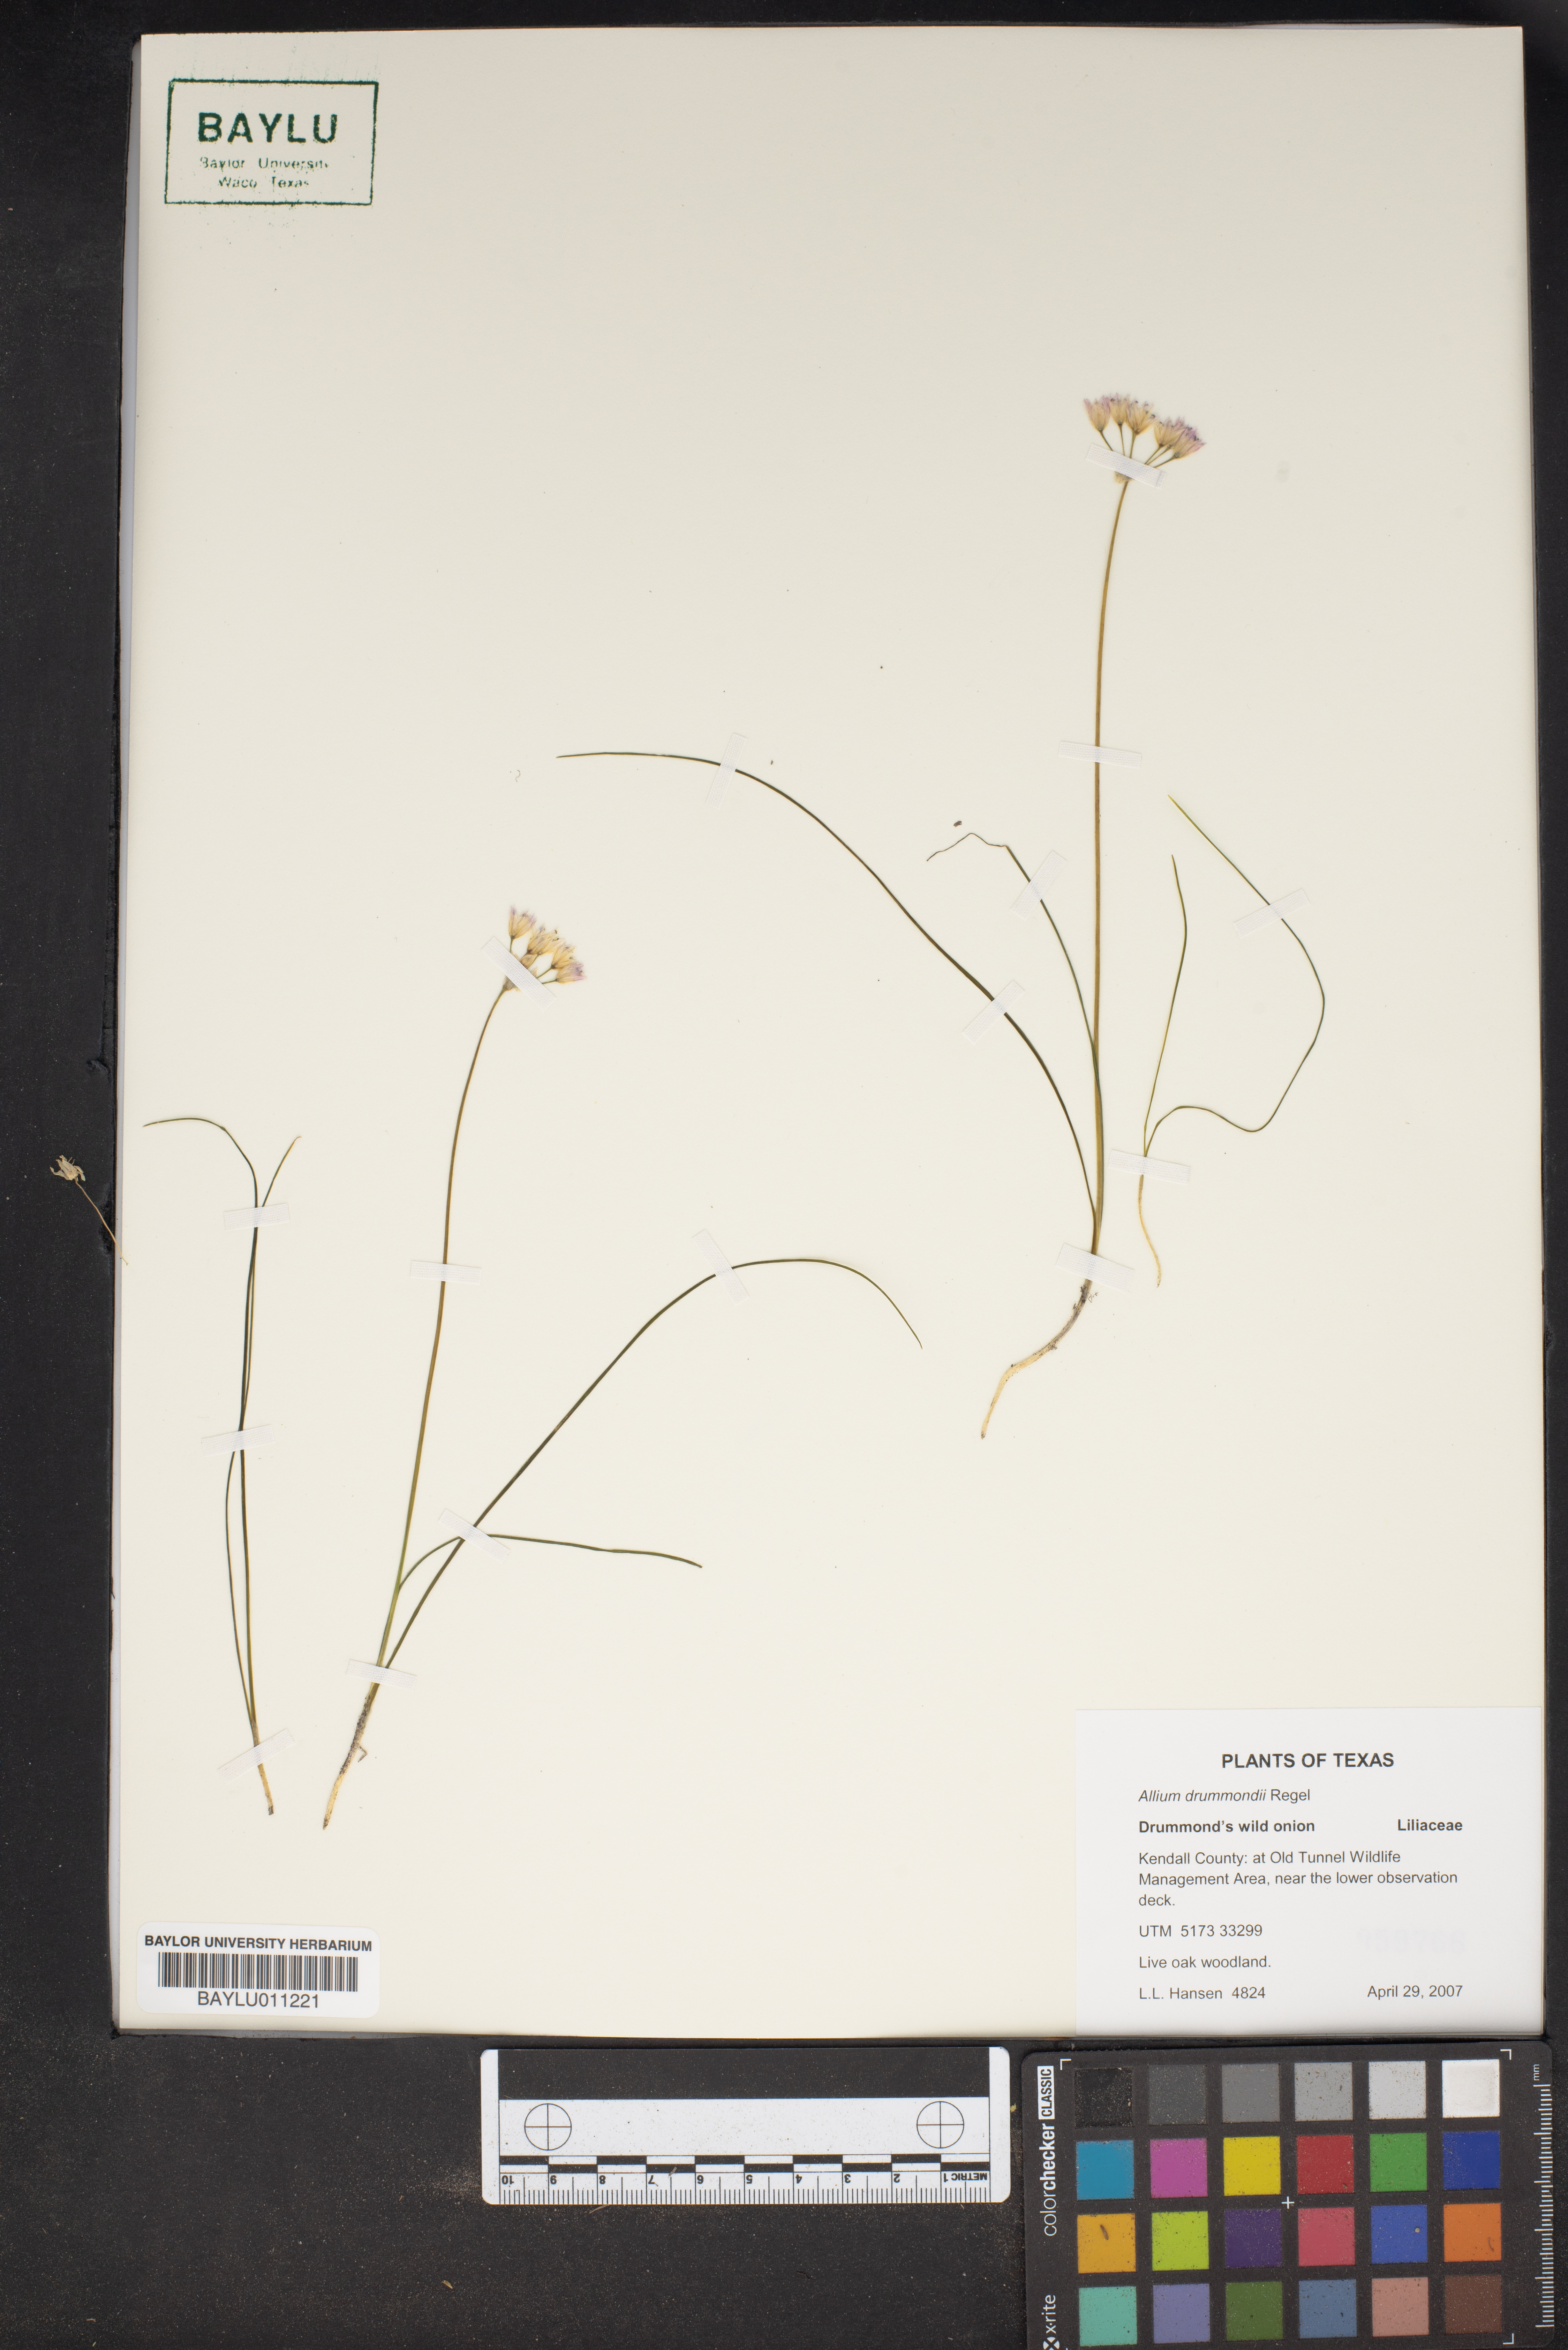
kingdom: Plantae
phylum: Tracheophyta
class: Liliopsida
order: Asparagales
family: Amaryllidaceae
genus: Allium
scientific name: Allium drummondii
